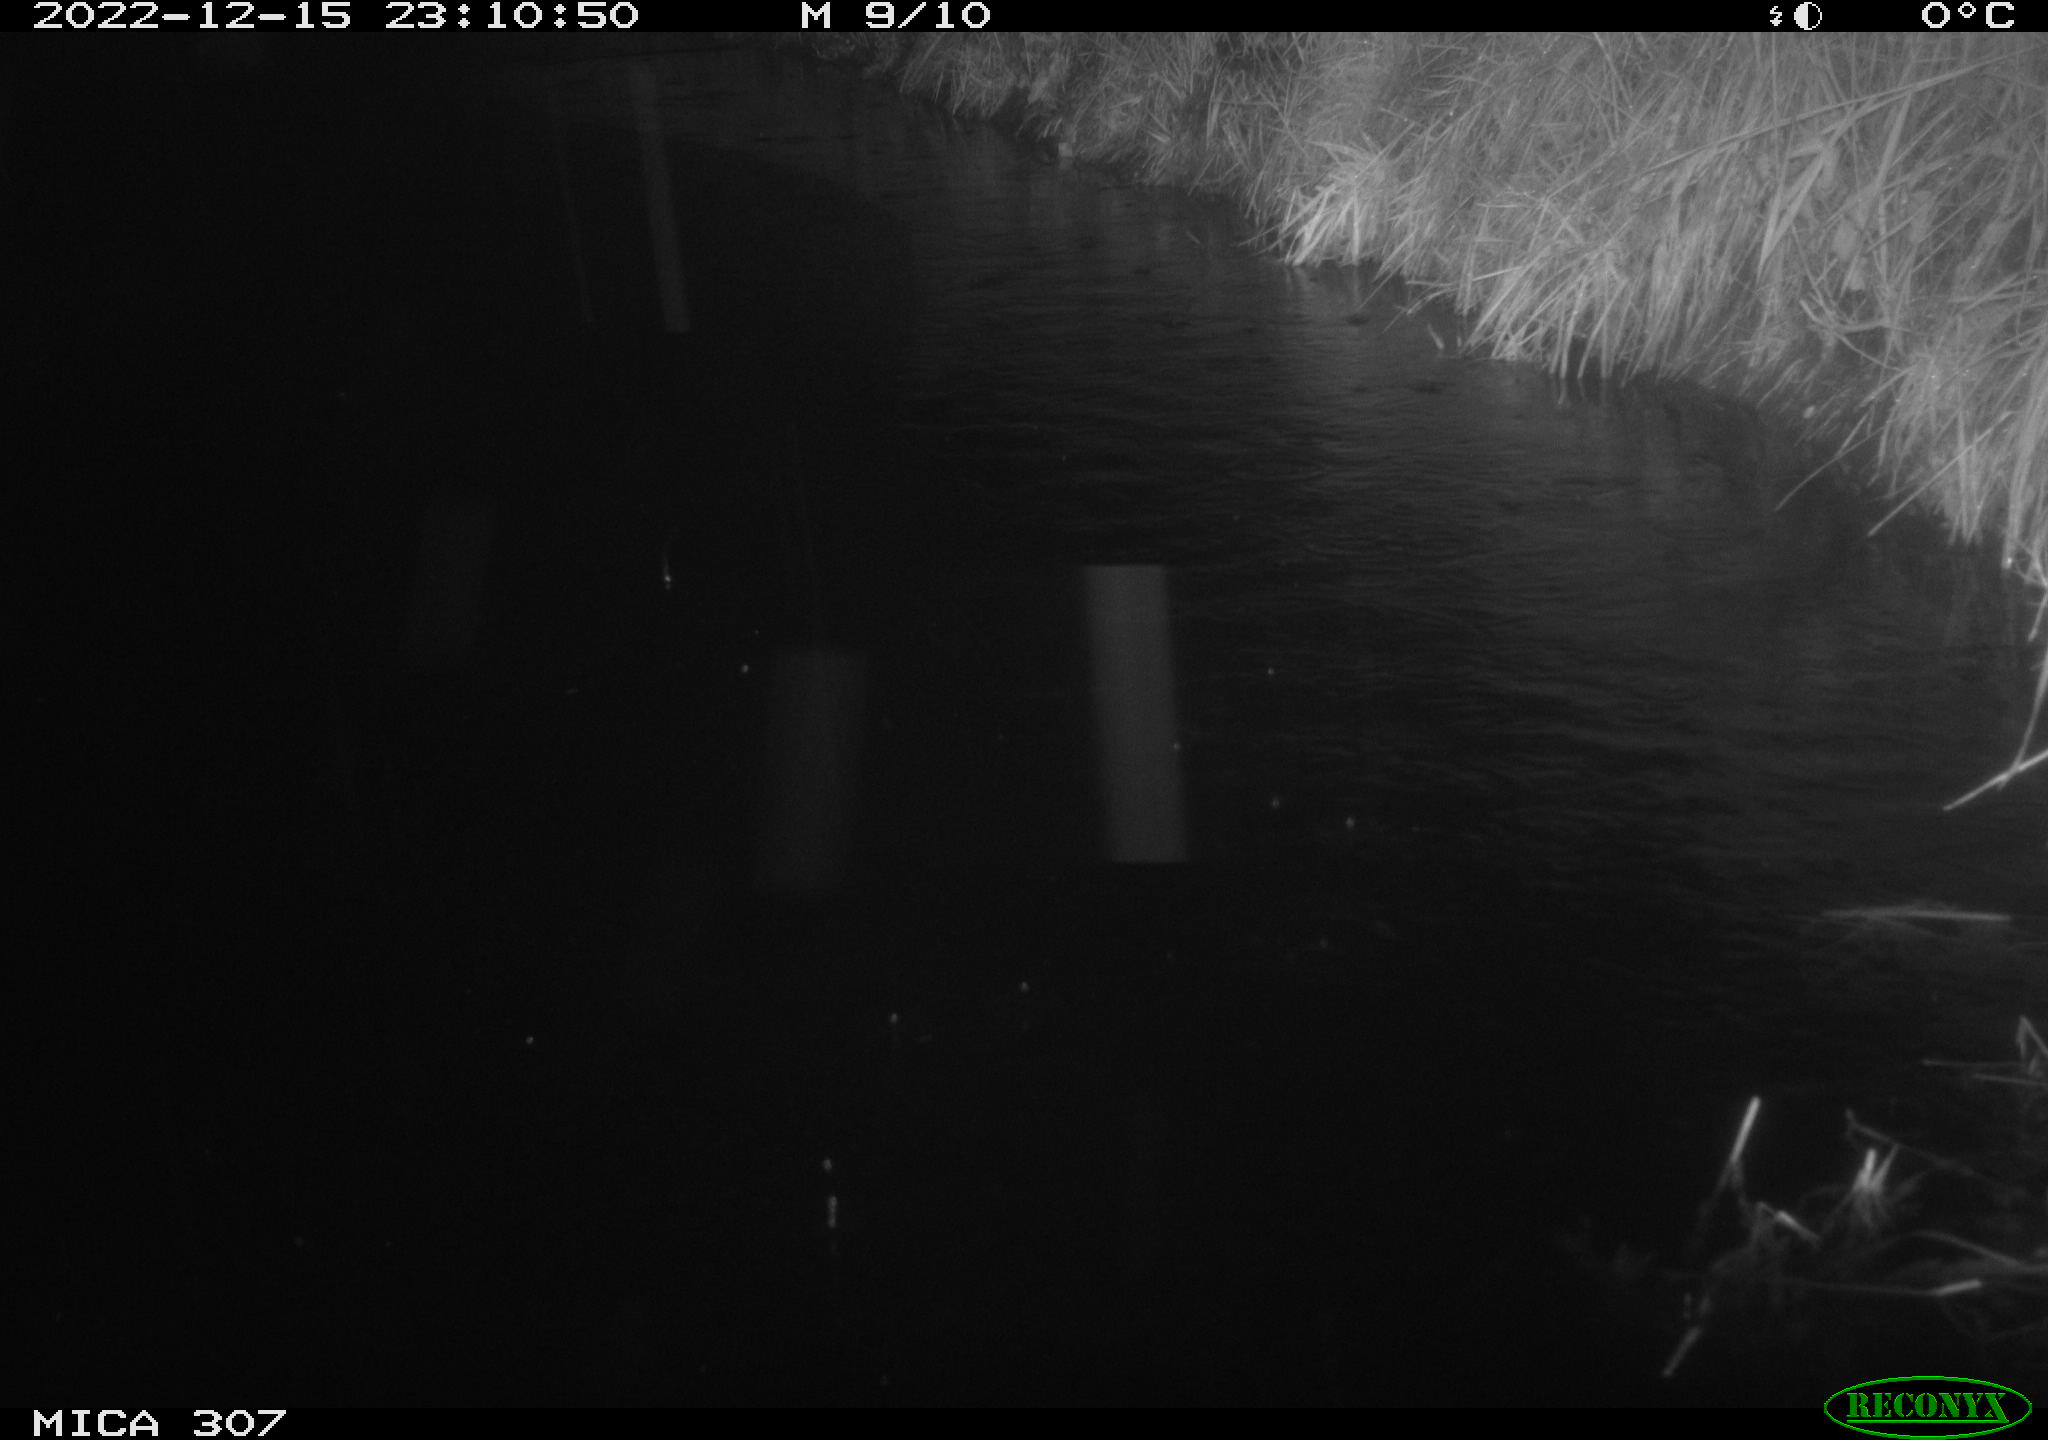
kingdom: Animalia
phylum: Chordata
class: Mammalia
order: Rodentia
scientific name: Rodentia
